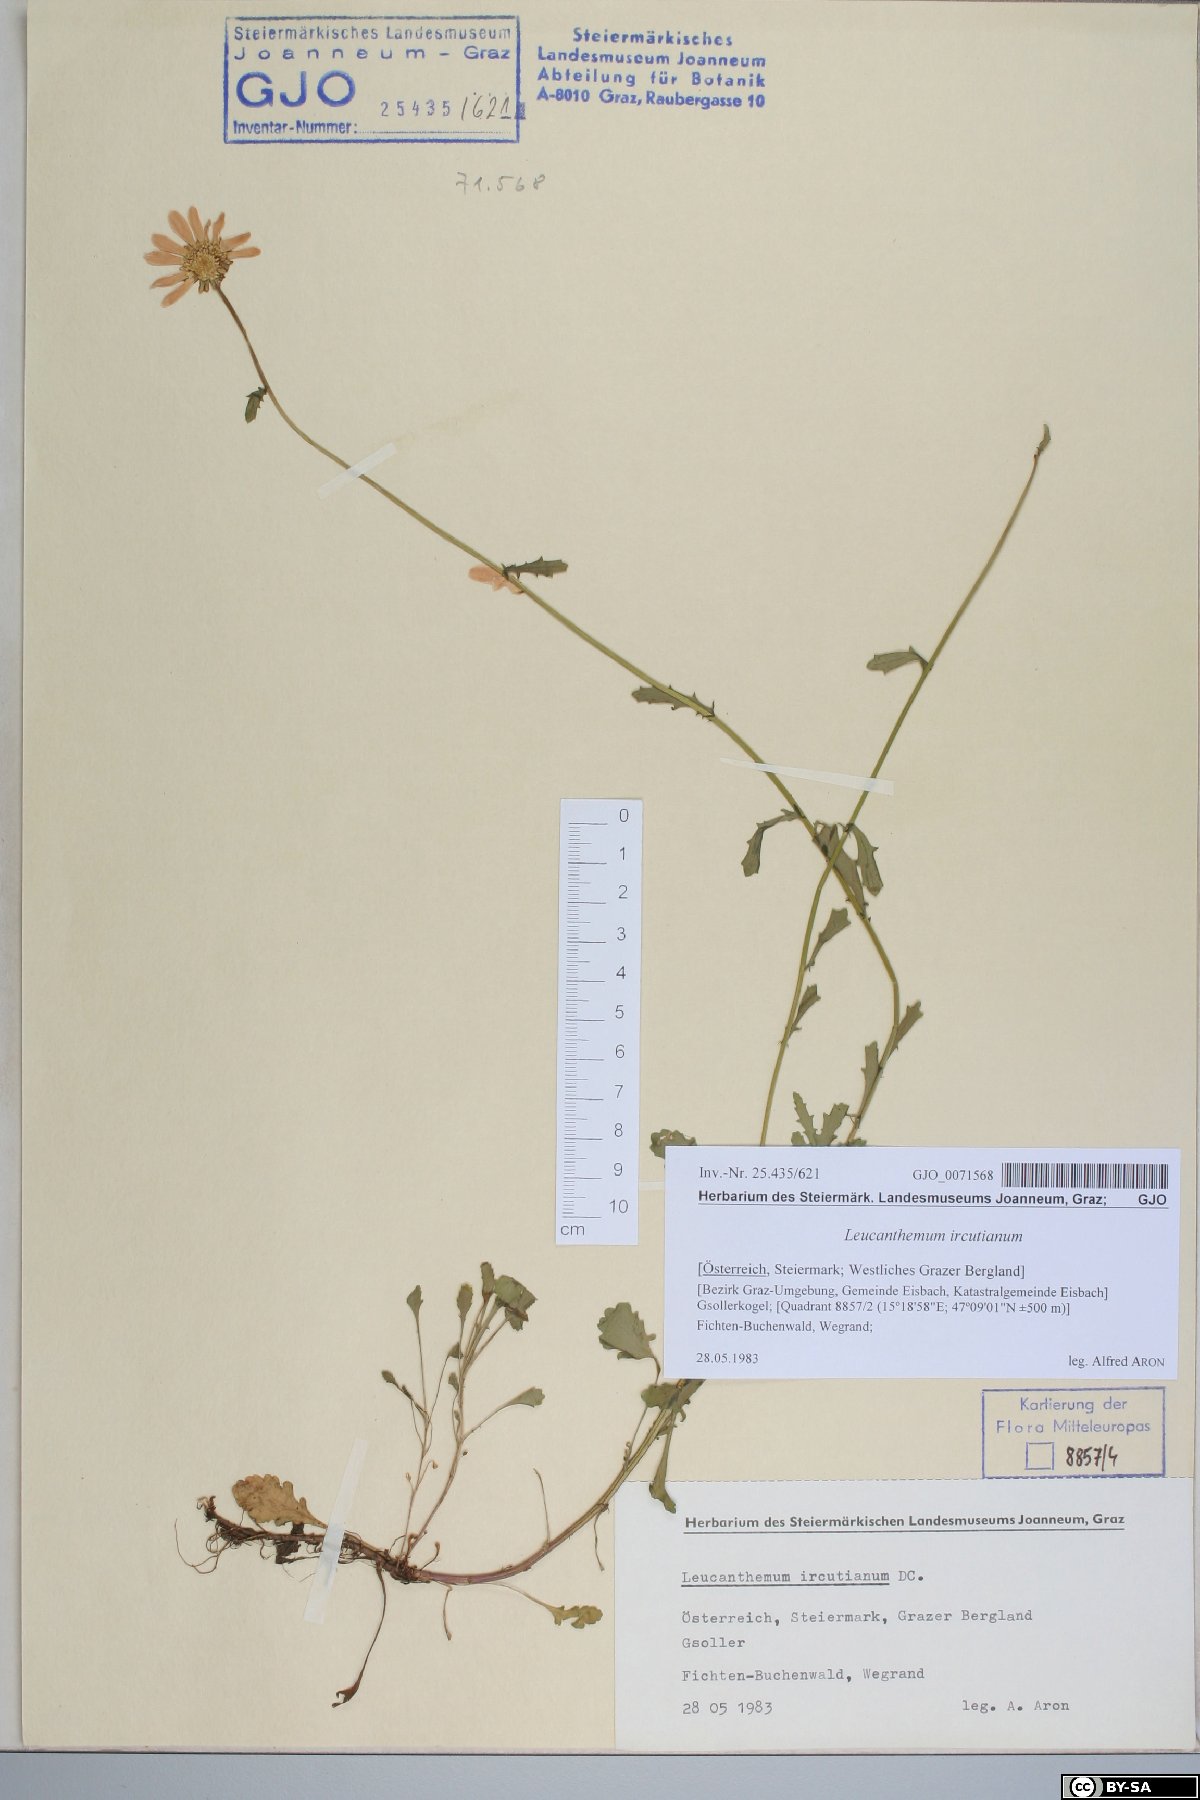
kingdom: Plantae
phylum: Tracheophyta
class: Magnoliopsida
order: Asterales
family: Asteraceae
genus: Leucanthemum
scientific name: Leucanthemum ircutianum
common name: Daisy
